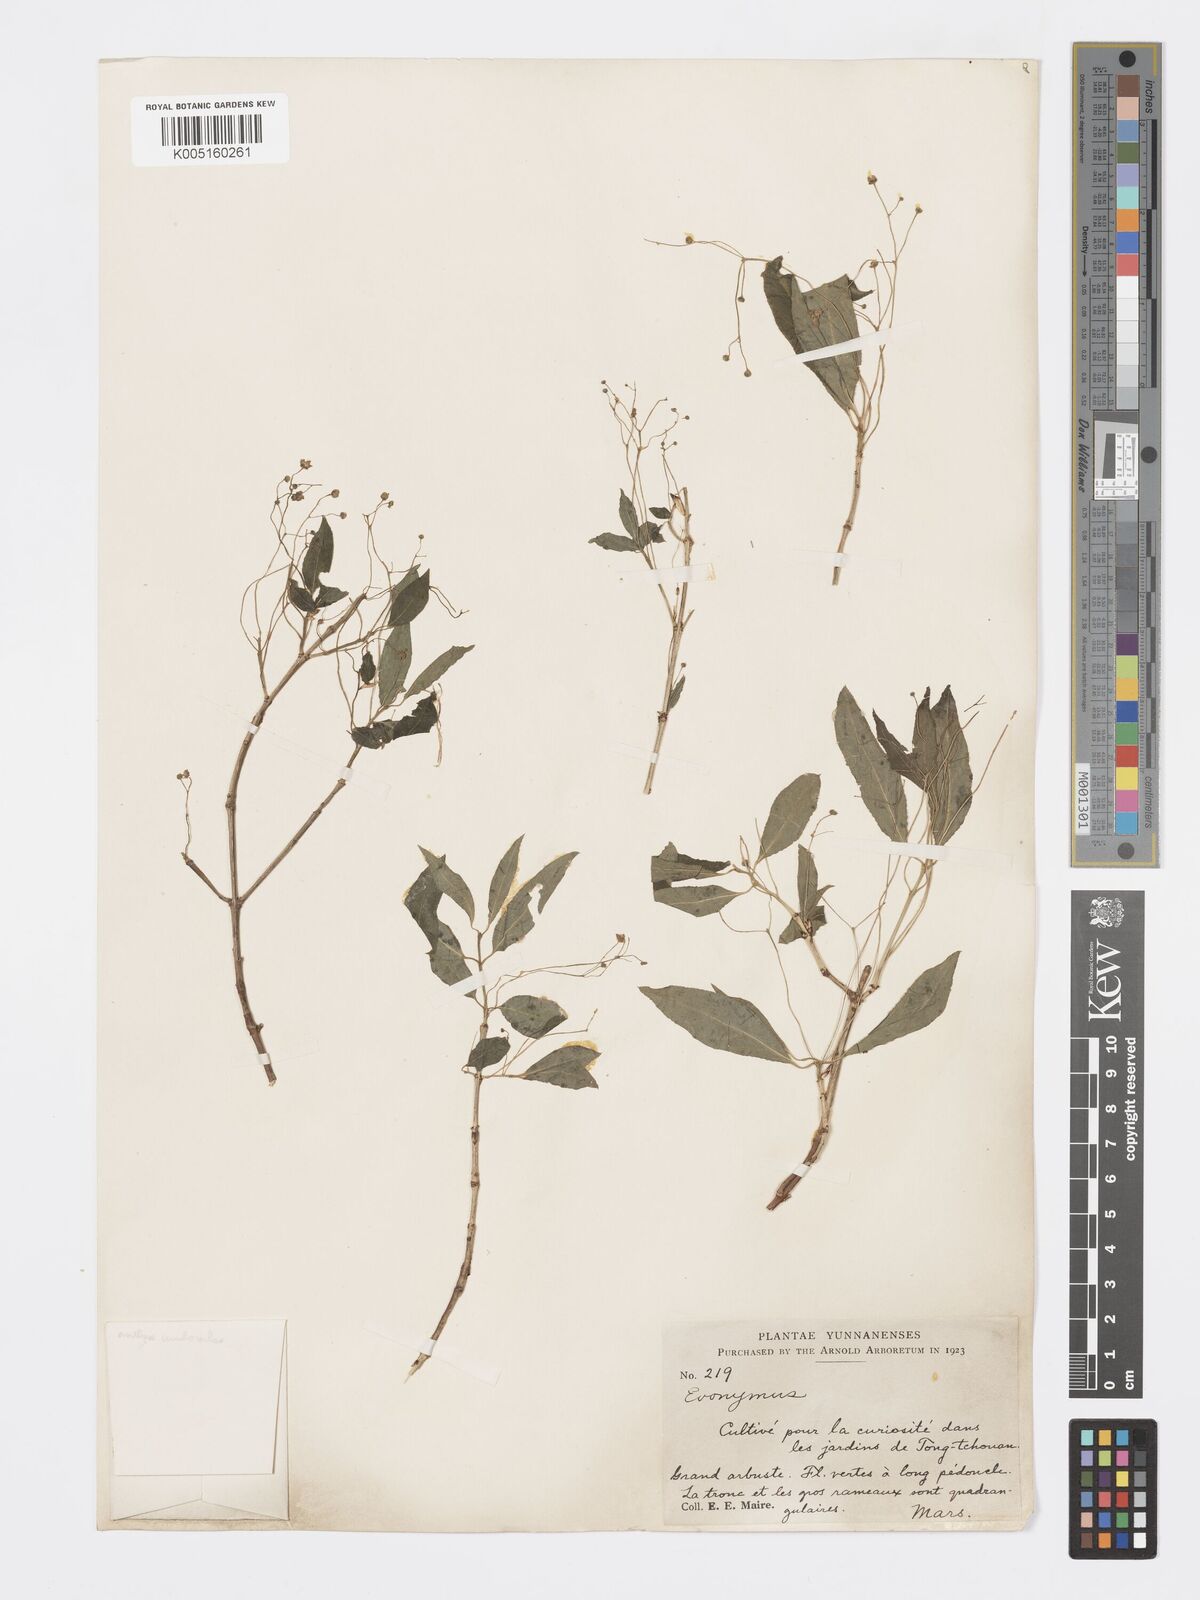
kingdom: Plantae
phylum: Tracheophyta
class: Magnoliopsida
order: Celastrales
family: Celastraceae
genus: Euonymus
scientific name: Euonymus
